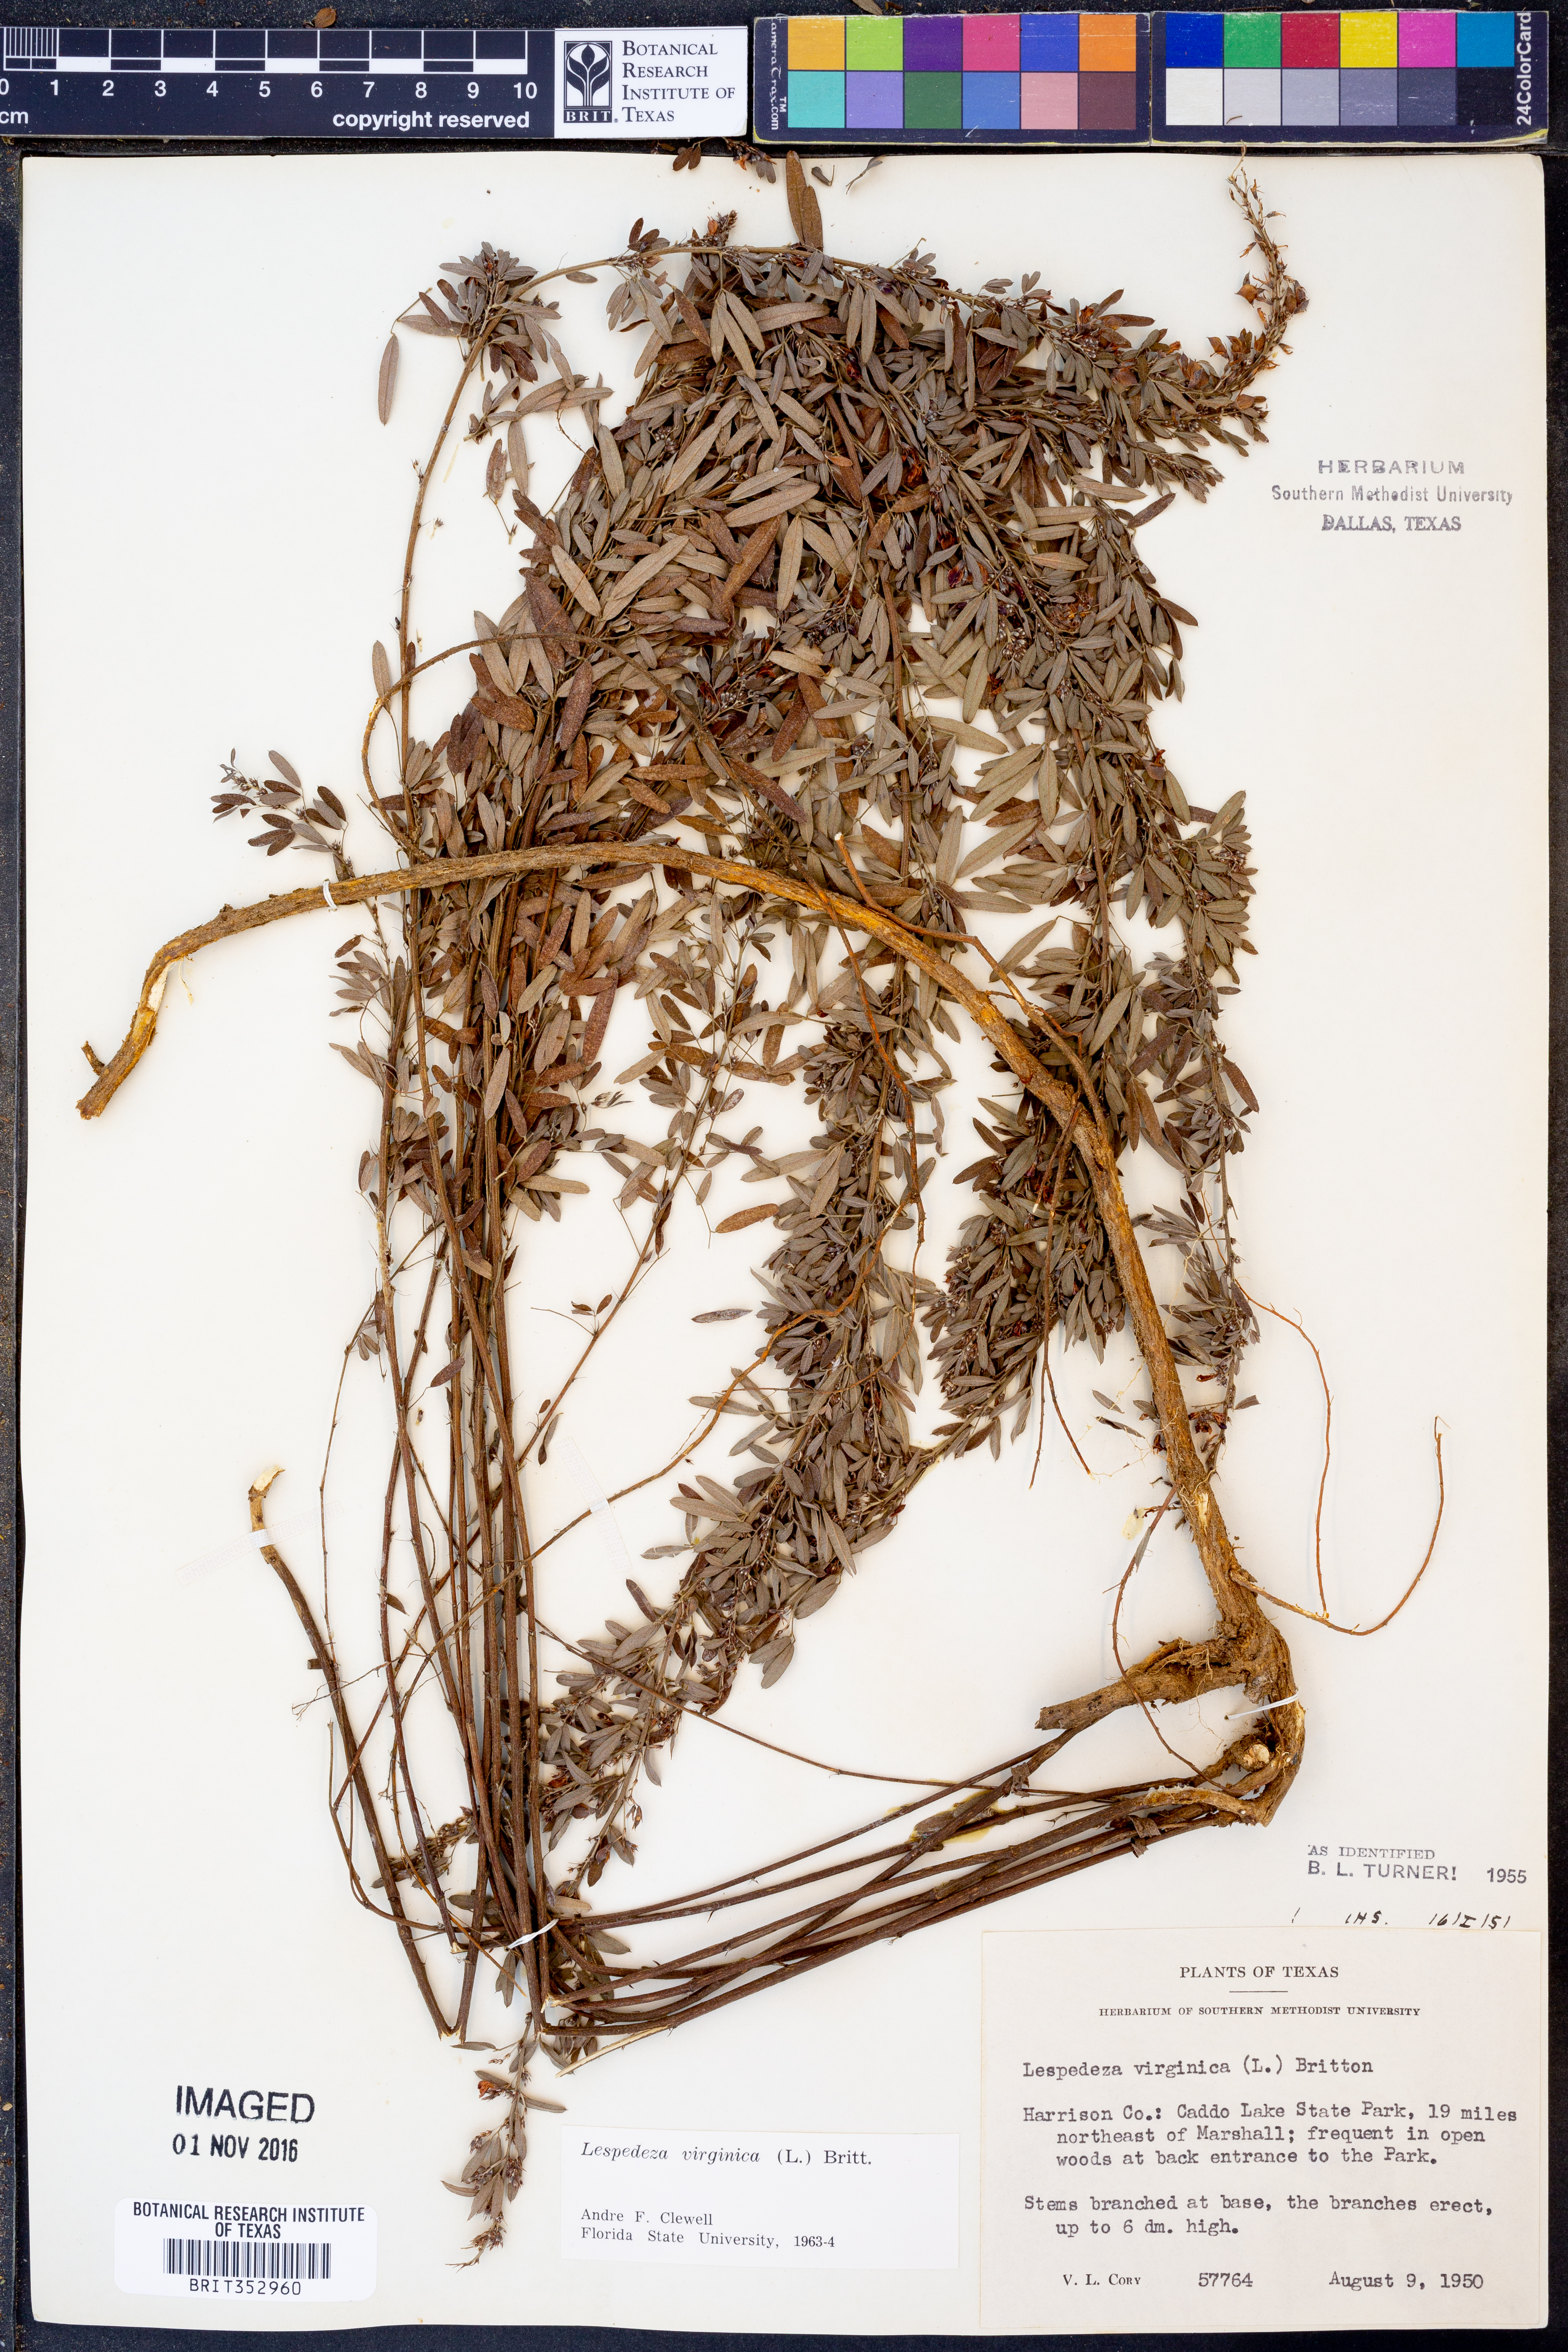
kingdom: Plantae
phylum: Tracheophyta
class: Magnoliopsida
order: Fabales
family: Fabaceae
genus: Lespedeza
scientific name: Lespedeza virginica
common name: Slender bush-clover
